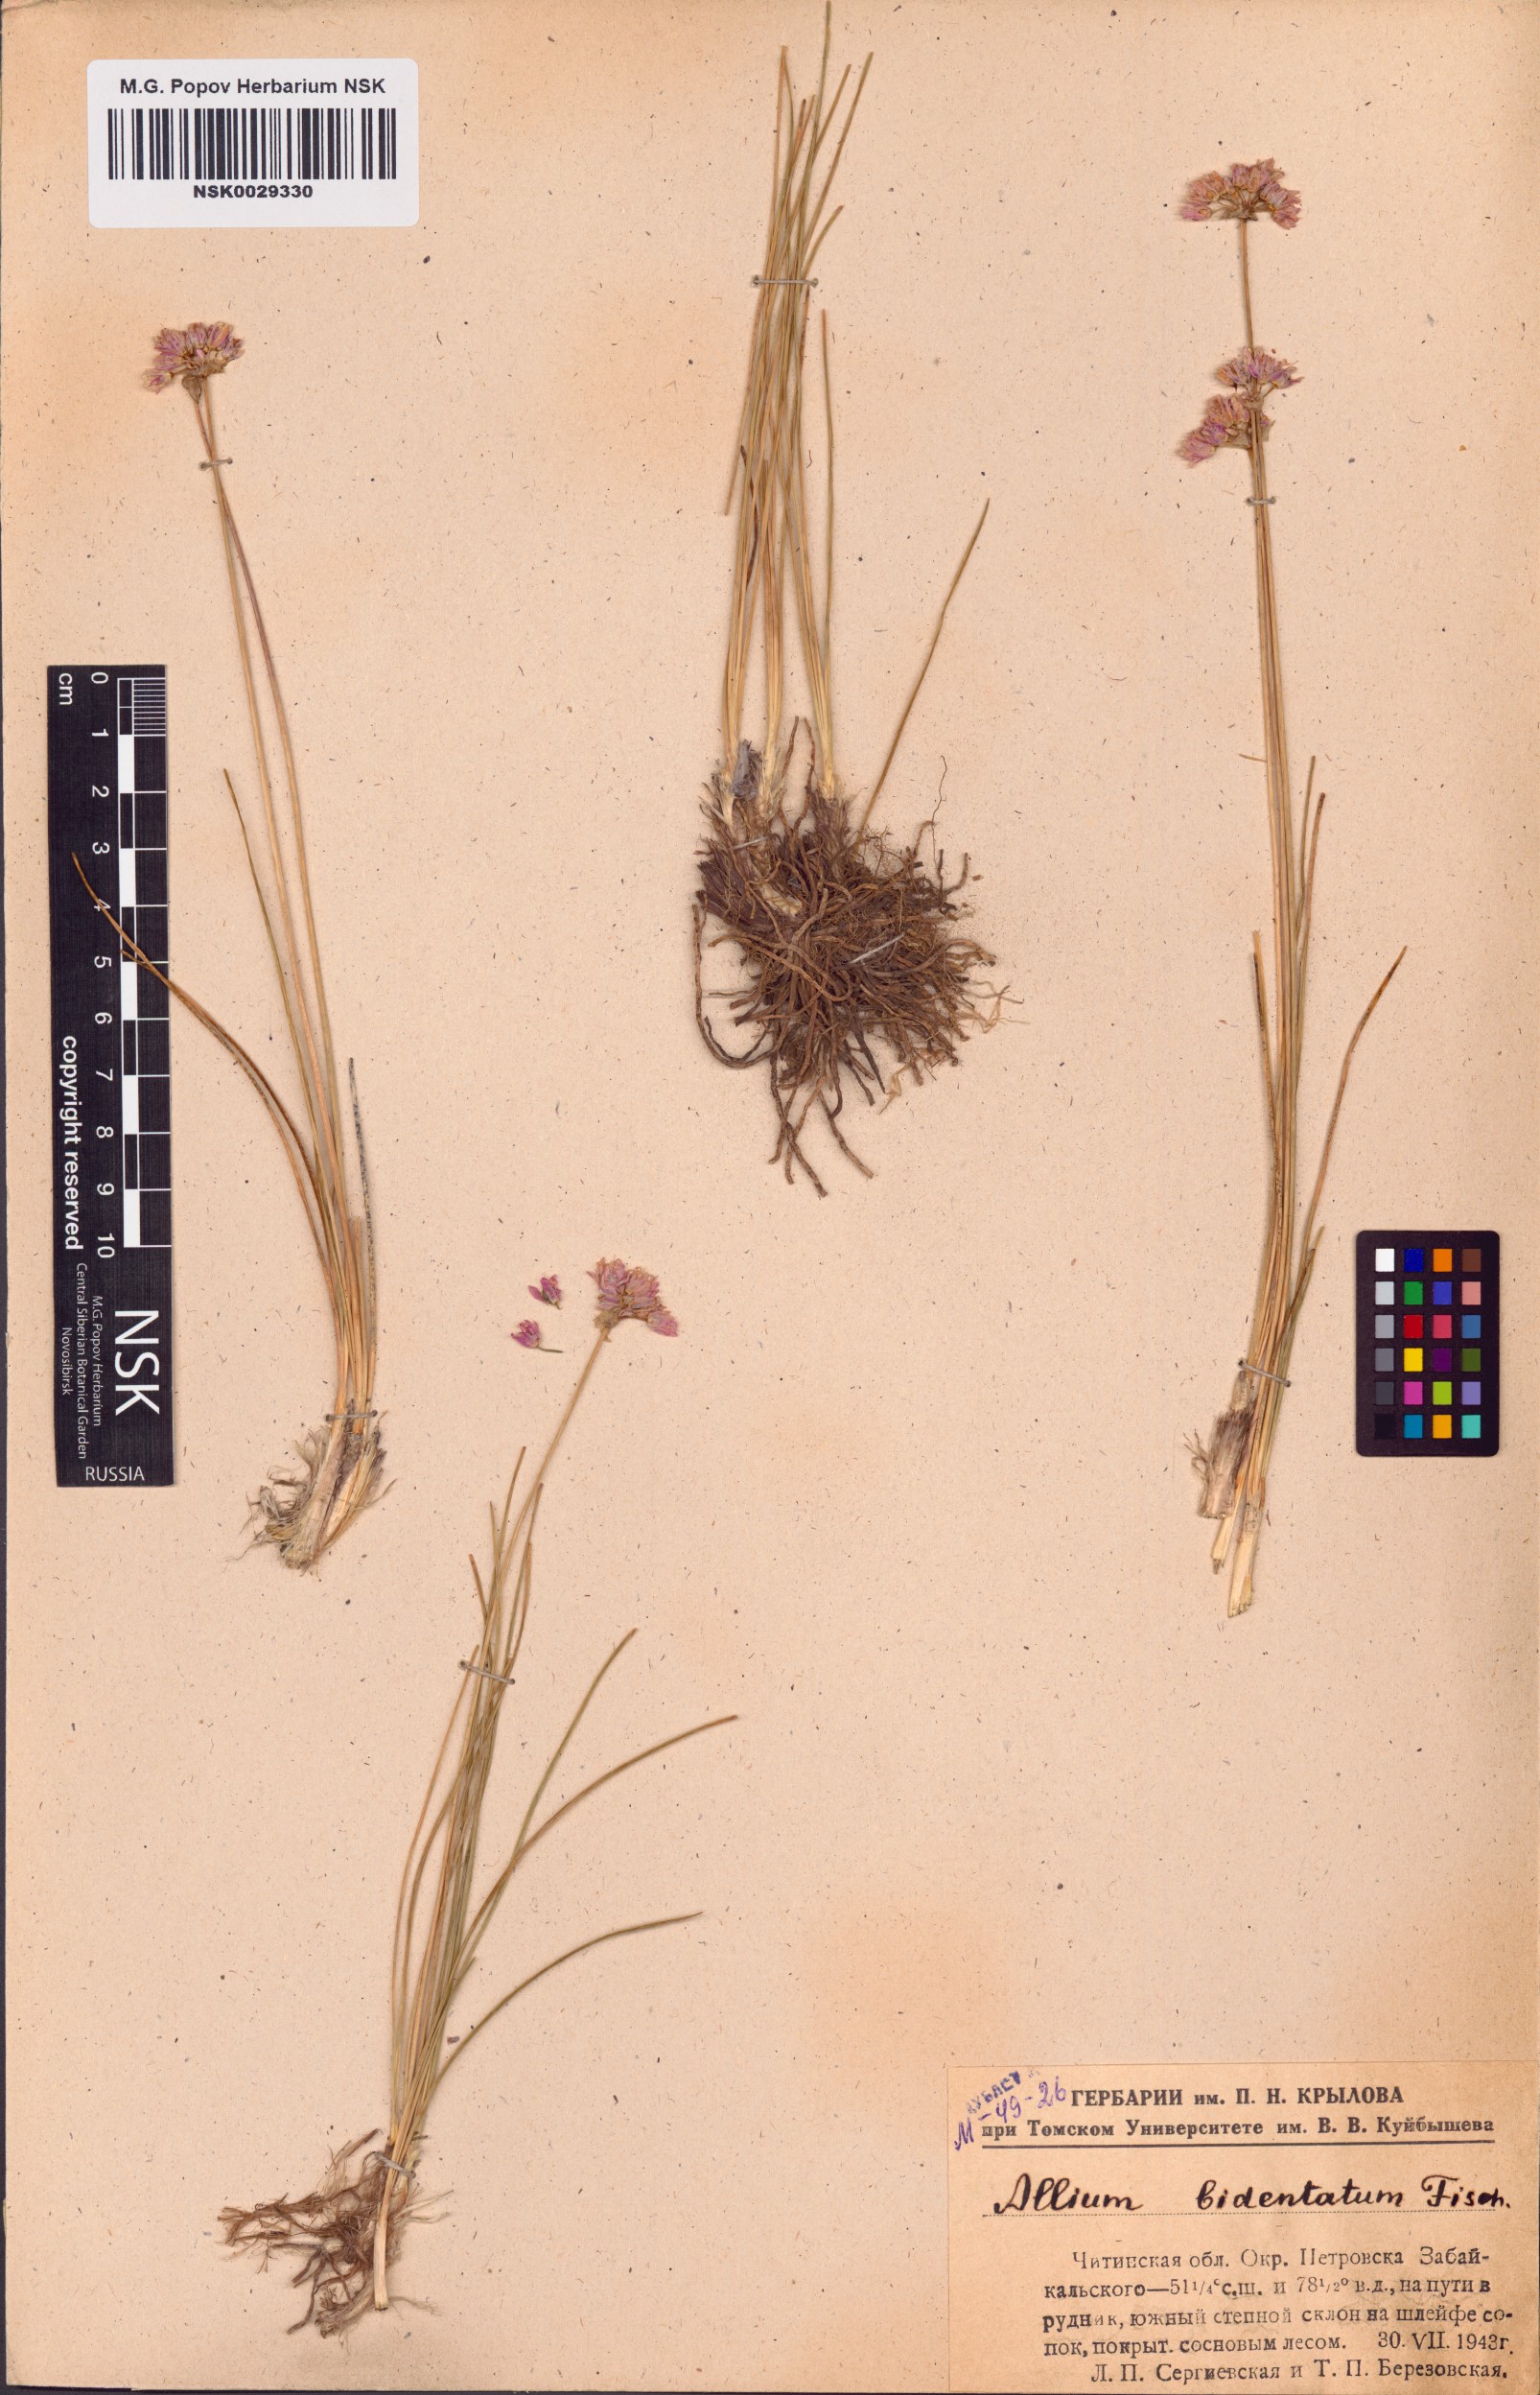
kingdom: Plantae
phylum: Tracheophyta
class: Liliopsida
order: Asparagales
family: Amaryllidaceae
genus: Allium
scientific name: Allium bidentatum
